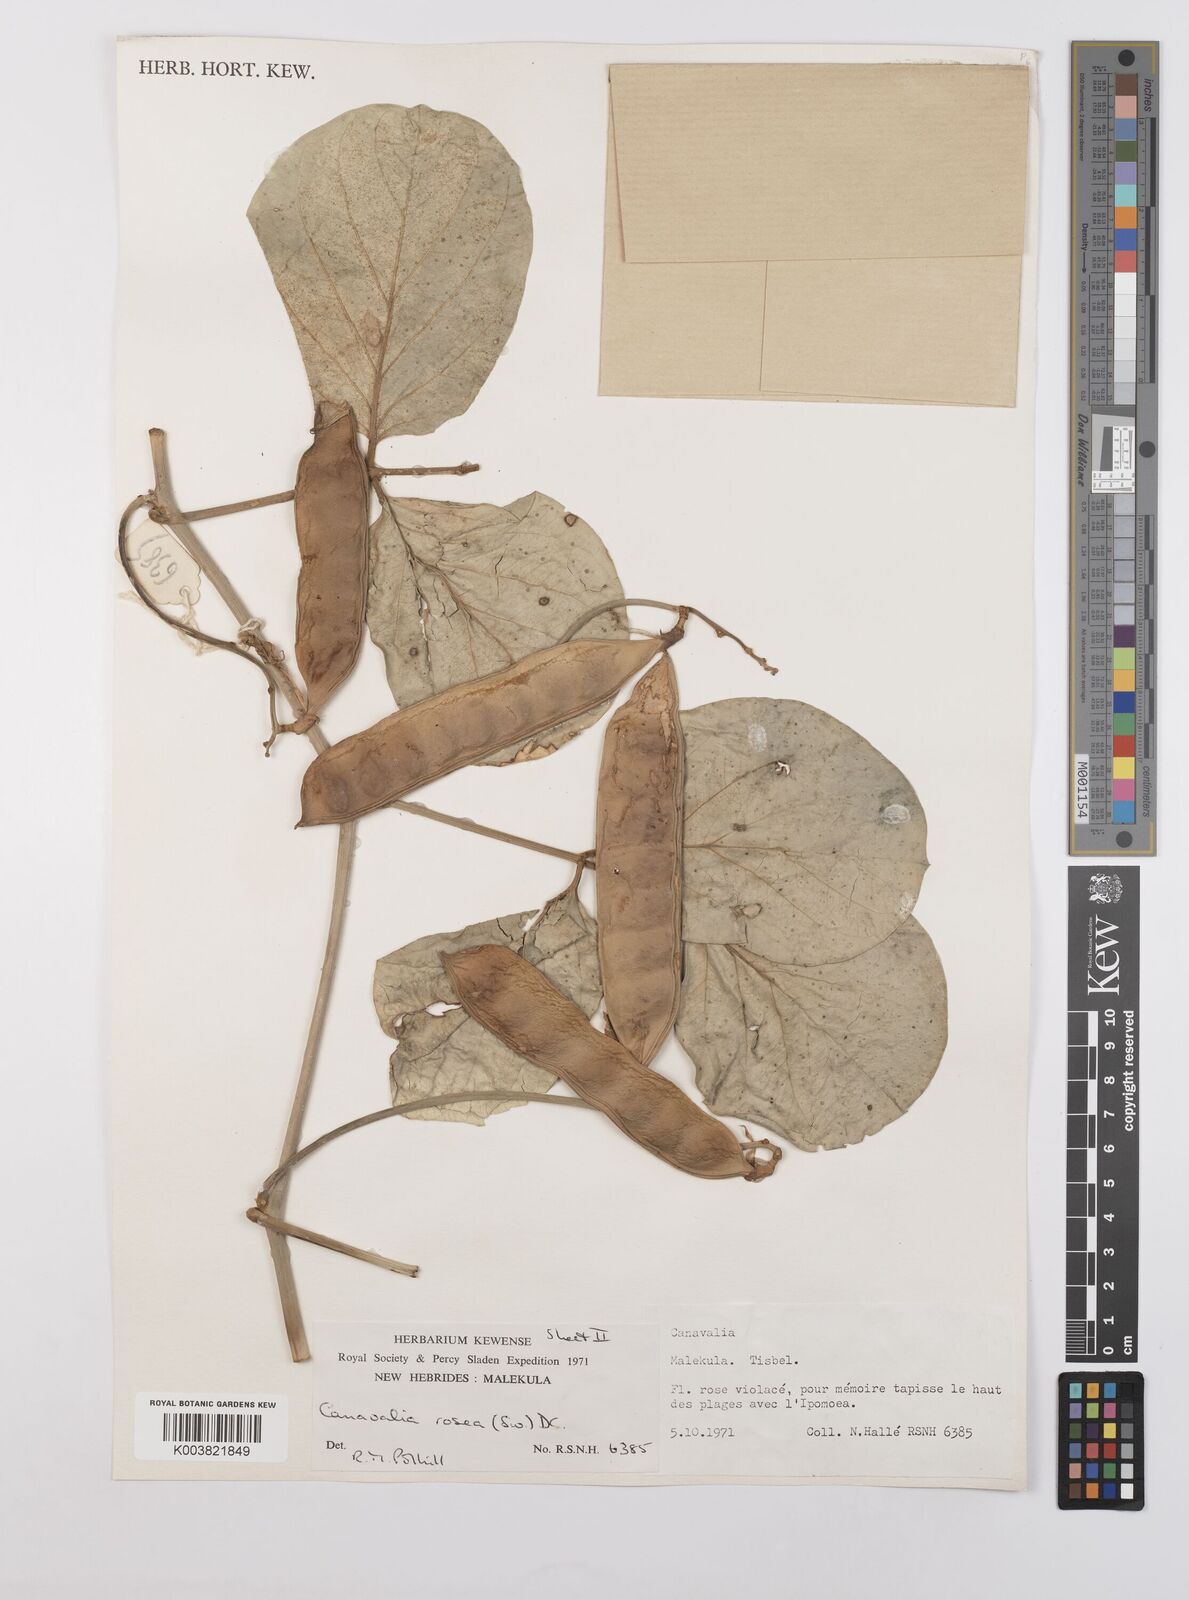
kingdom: Plantae
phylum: Tracheophyta
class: Magnoliopsida
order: Fabales
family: Fabaceae
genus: Canavalia
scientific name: Canavalia rosea
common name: Beach-bean
